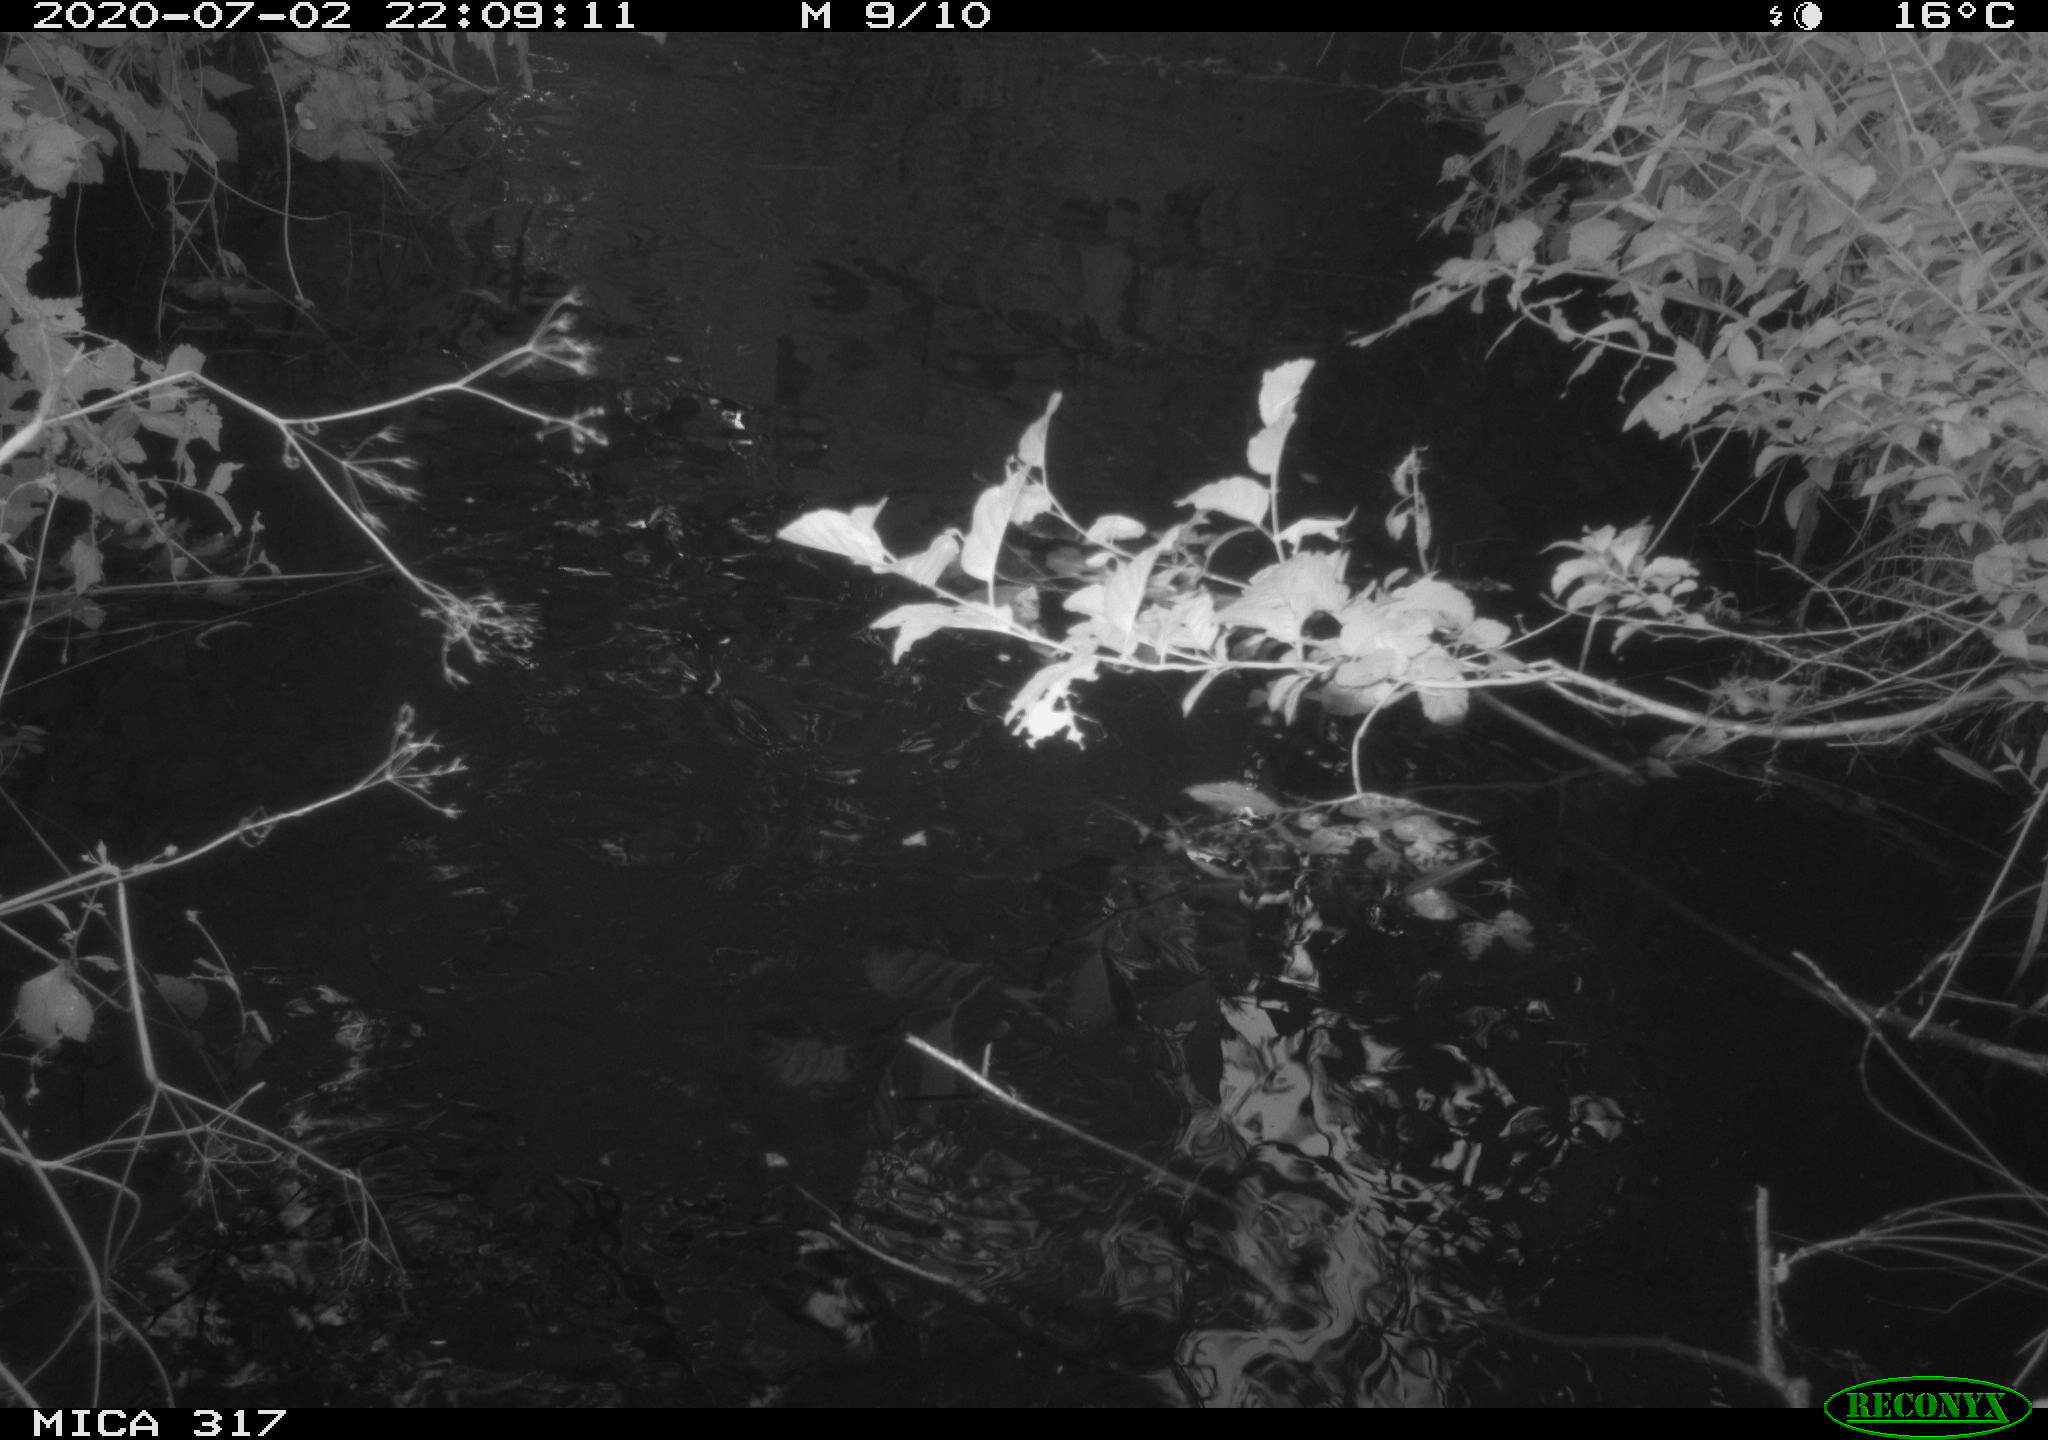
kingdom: Animalia
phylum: Chordata
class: Aves
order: Anseriformes
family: Anatidae
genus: Anas
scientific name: Anas platyrhynchos
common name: Mallard
